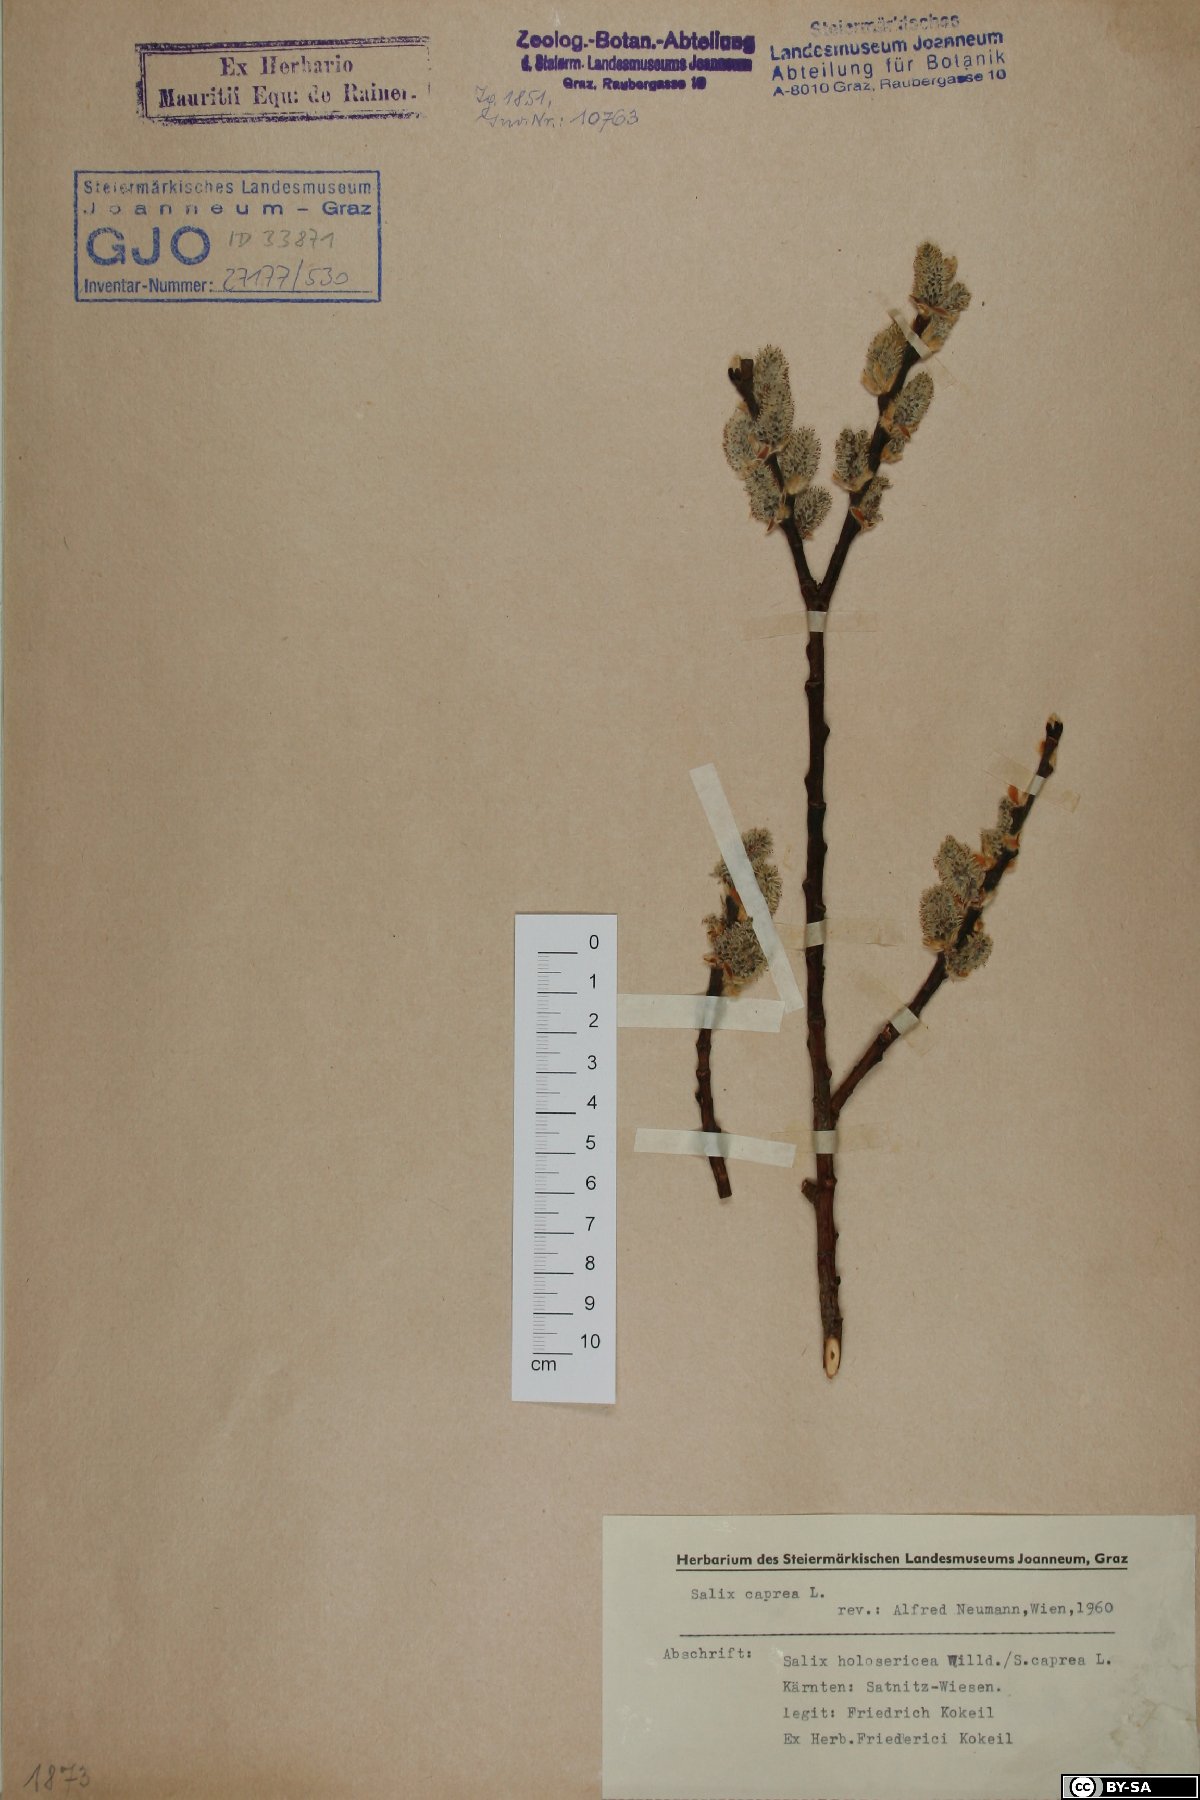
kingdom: Plantae
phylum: Tracheophyta
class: Magnoliopsida
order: Malpighiales
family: Salicaceae
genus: Salix
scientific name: Salix caprea
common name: Goat willow
